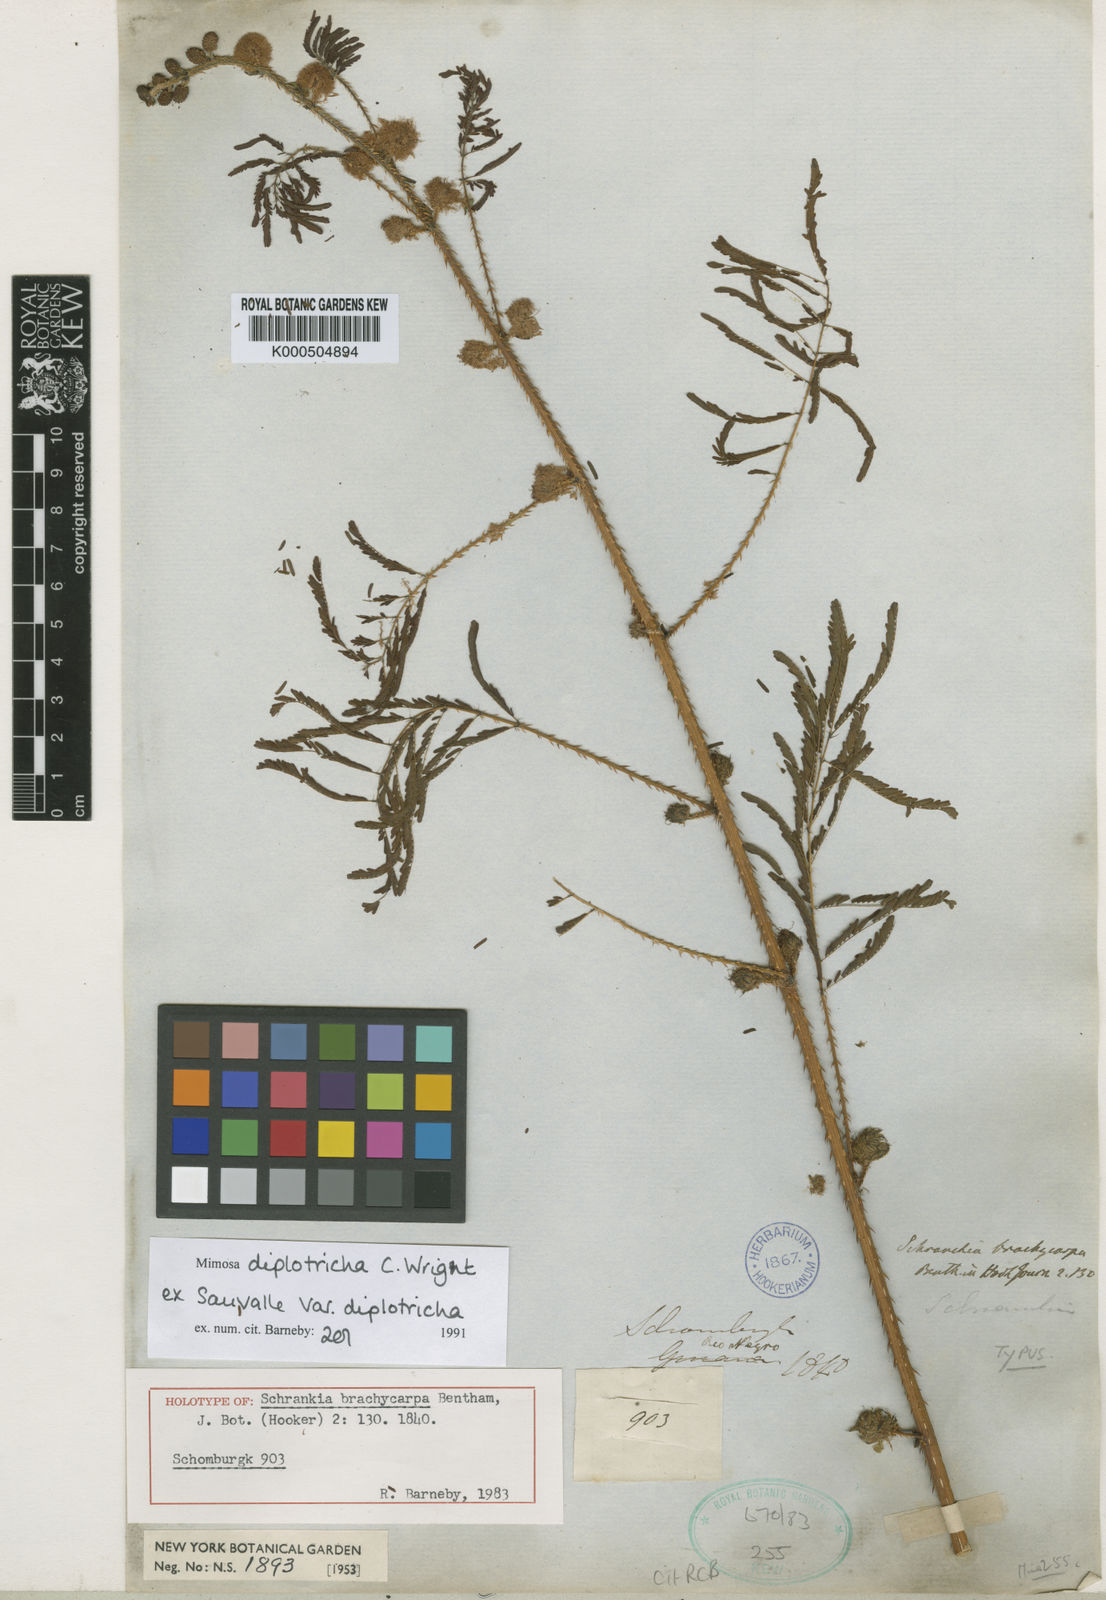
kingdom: Plantae
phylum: Tracheophyta
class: Magnoliopsida
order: Fabales
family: Fabaceae
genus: Mimosa
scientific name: Mimosa diplotricha
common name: Giant sensitive-plant
